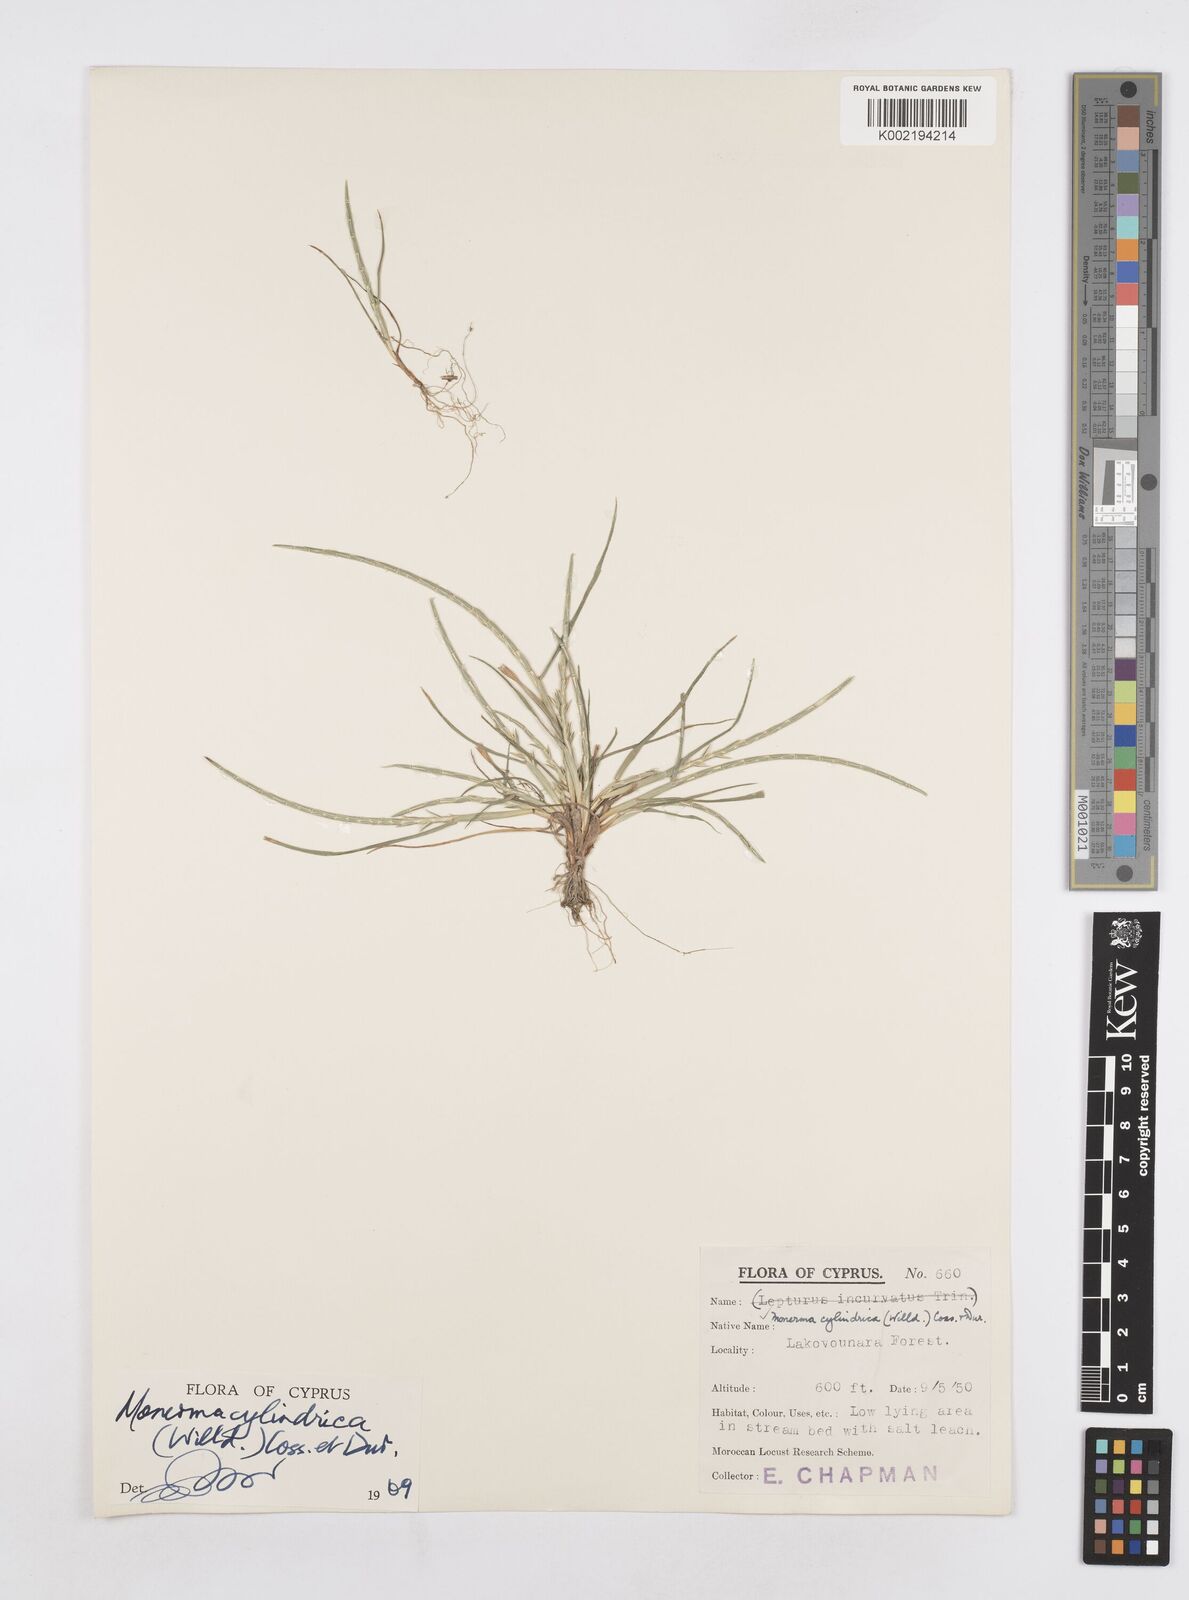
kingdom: Plantae
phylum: Tracheophyta
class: Liliopsida
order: Poales
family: Poaceae
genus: Parapholis
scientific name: Parapholis cylindrica
